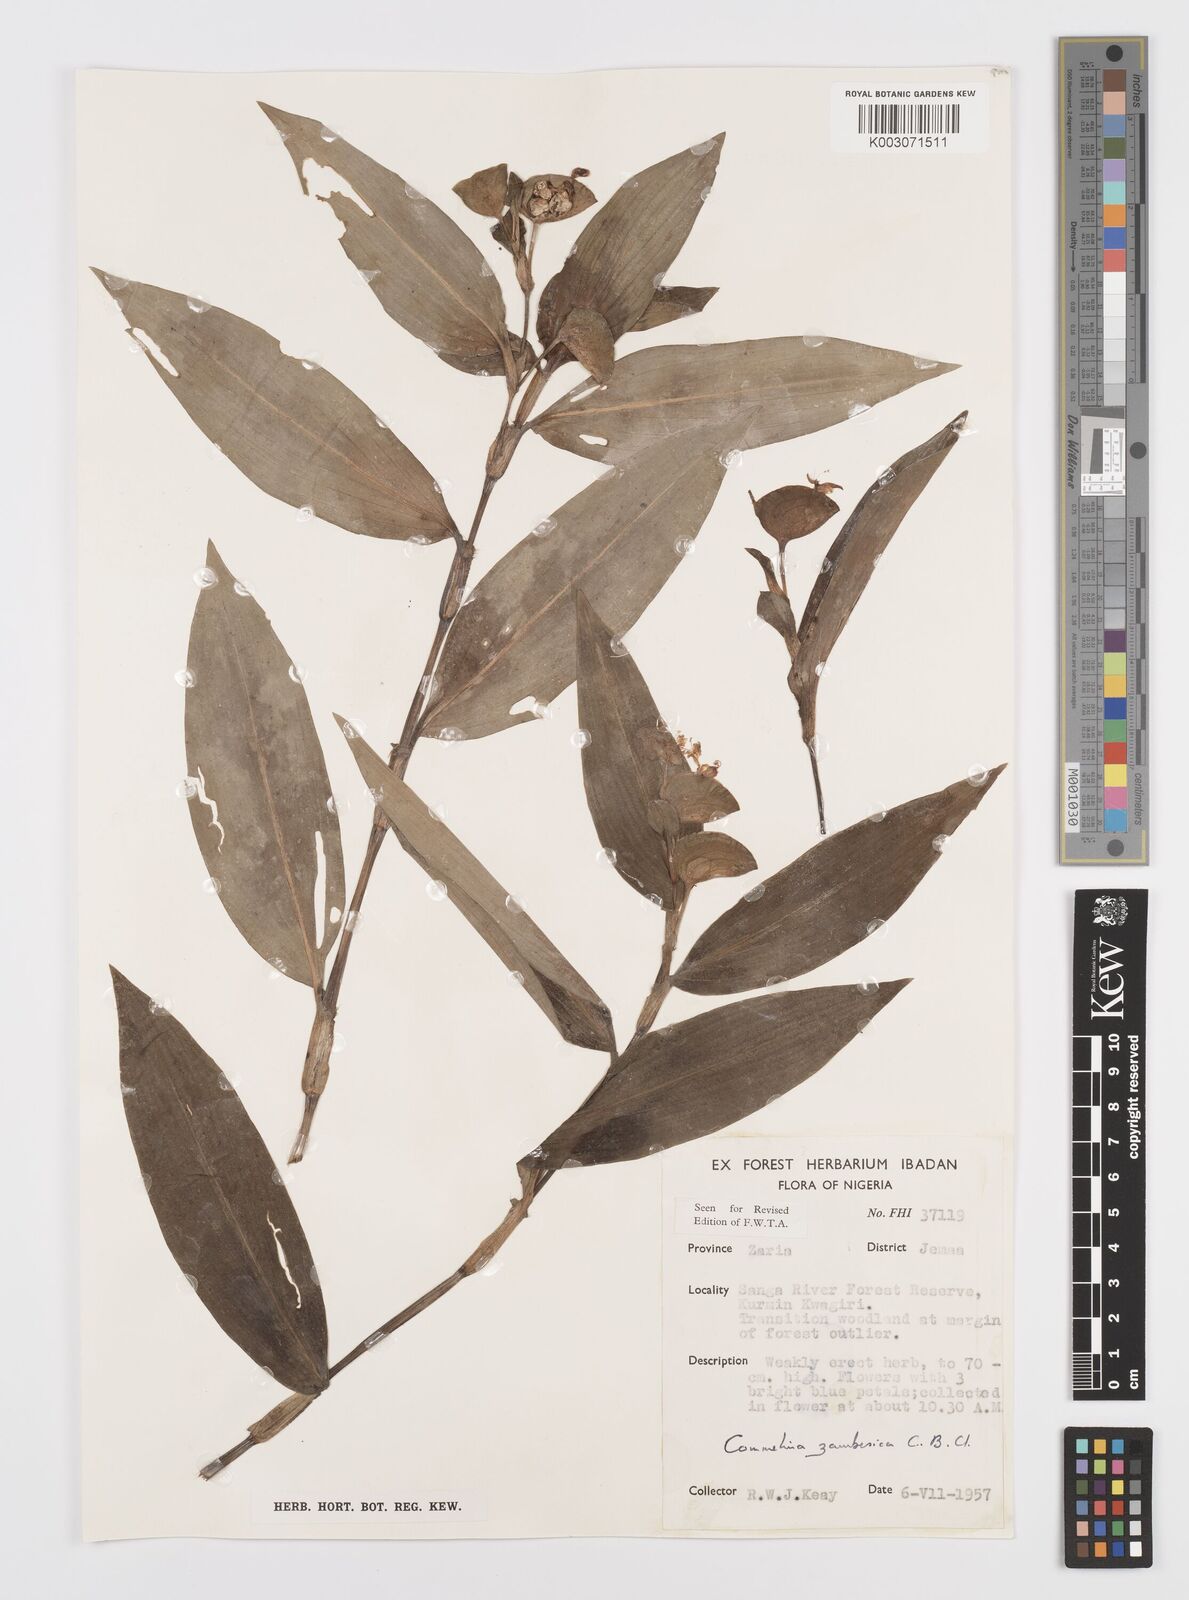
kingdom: Plantae
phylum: Tracheophyta
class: Liliopsida
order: Commelinales
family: Commelinaceae
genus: Commelina
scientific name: Commelina zambesica
